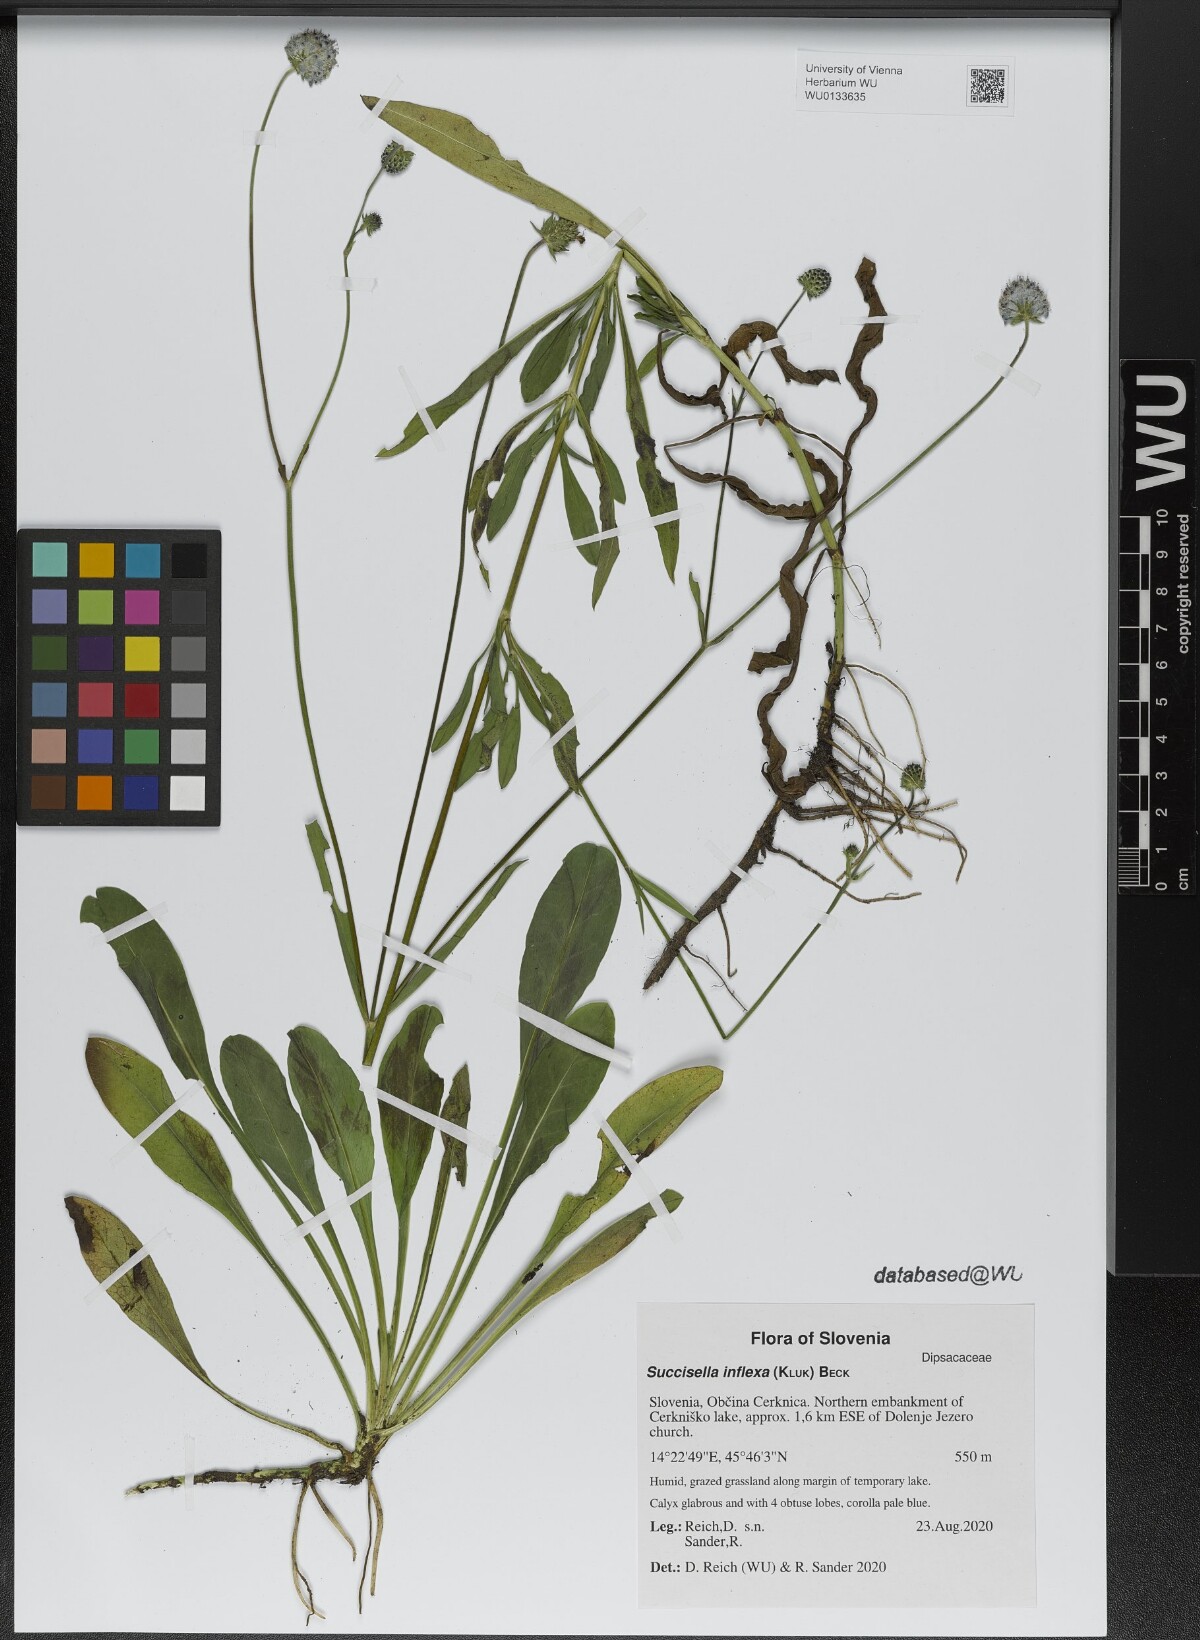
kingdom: Plantae
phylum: Tracheophyta
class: Magnoliopsida
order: Dipsacales
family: Caprifoliaceae
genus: Succisella
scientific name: Succisella inflexa
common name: Southern succisella
